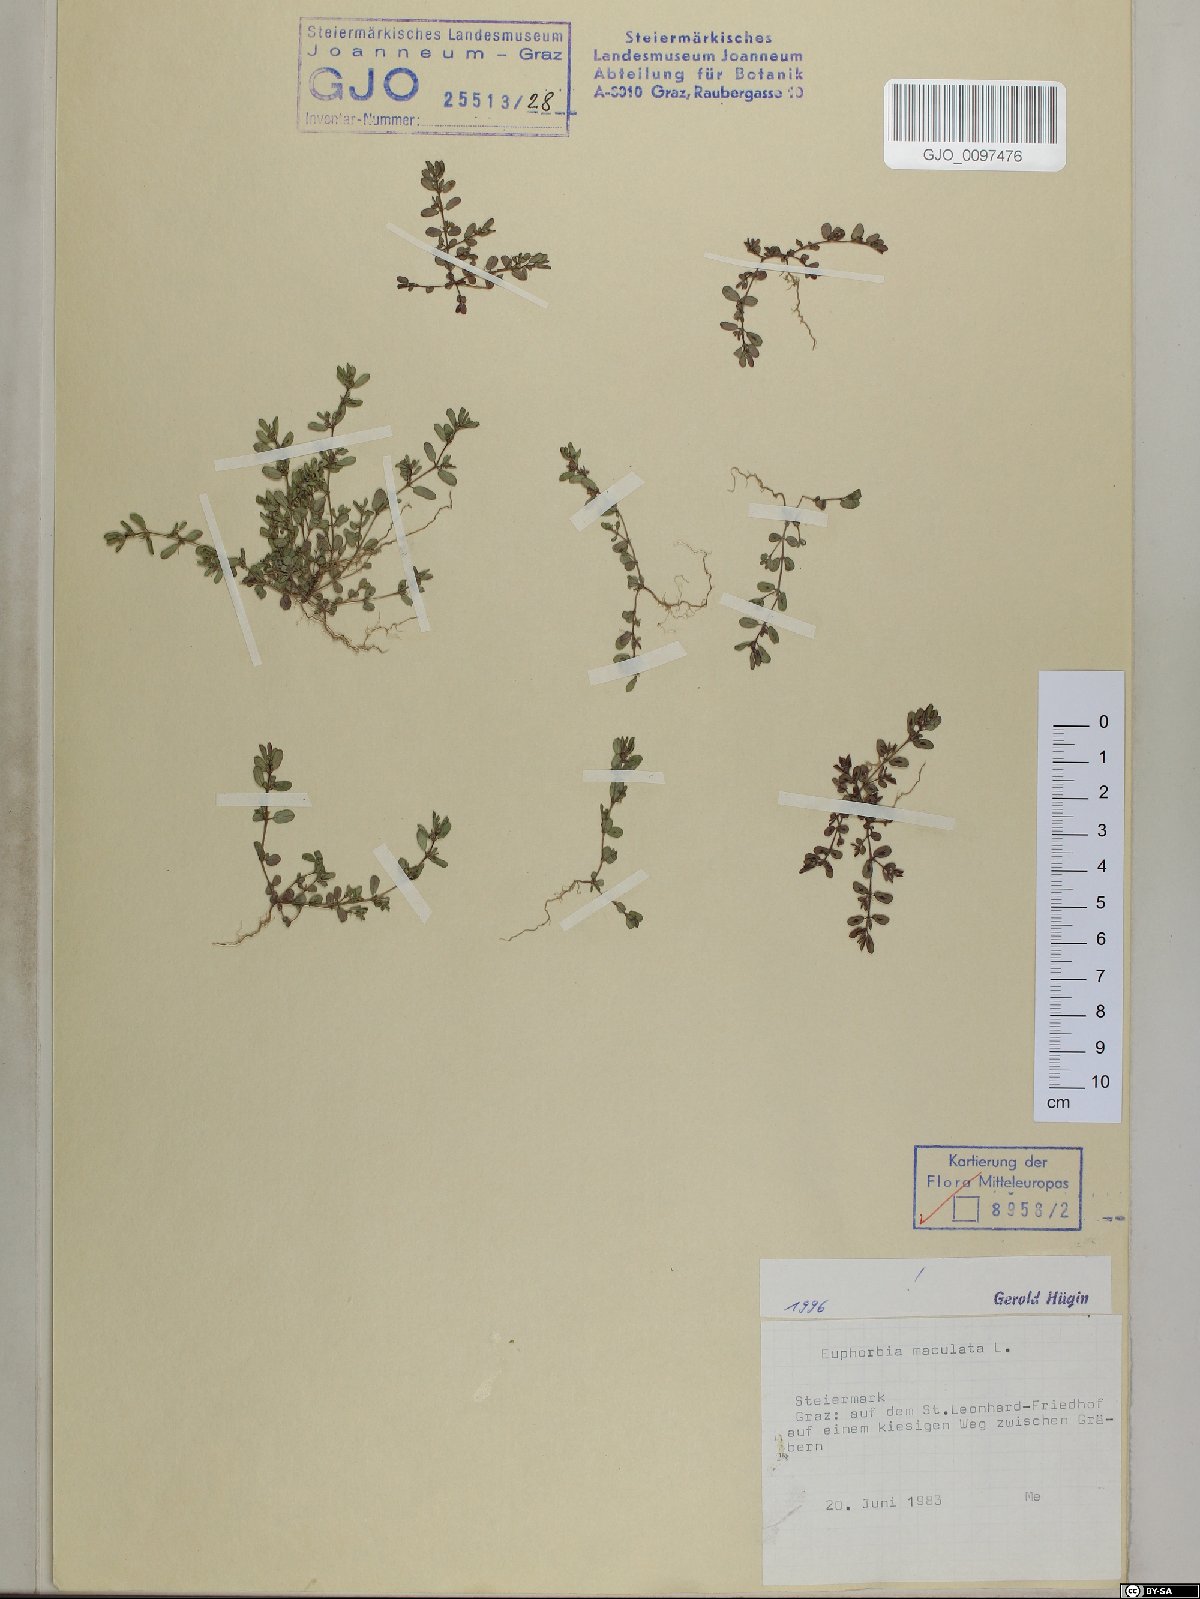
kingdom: Plantae
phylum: Tracheophyta
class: Magnoliopsida
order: Malpighiales
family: Euphorbiaceae
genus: Euphorbia
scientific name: Euphorbia maculata
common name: Spotted spurge
